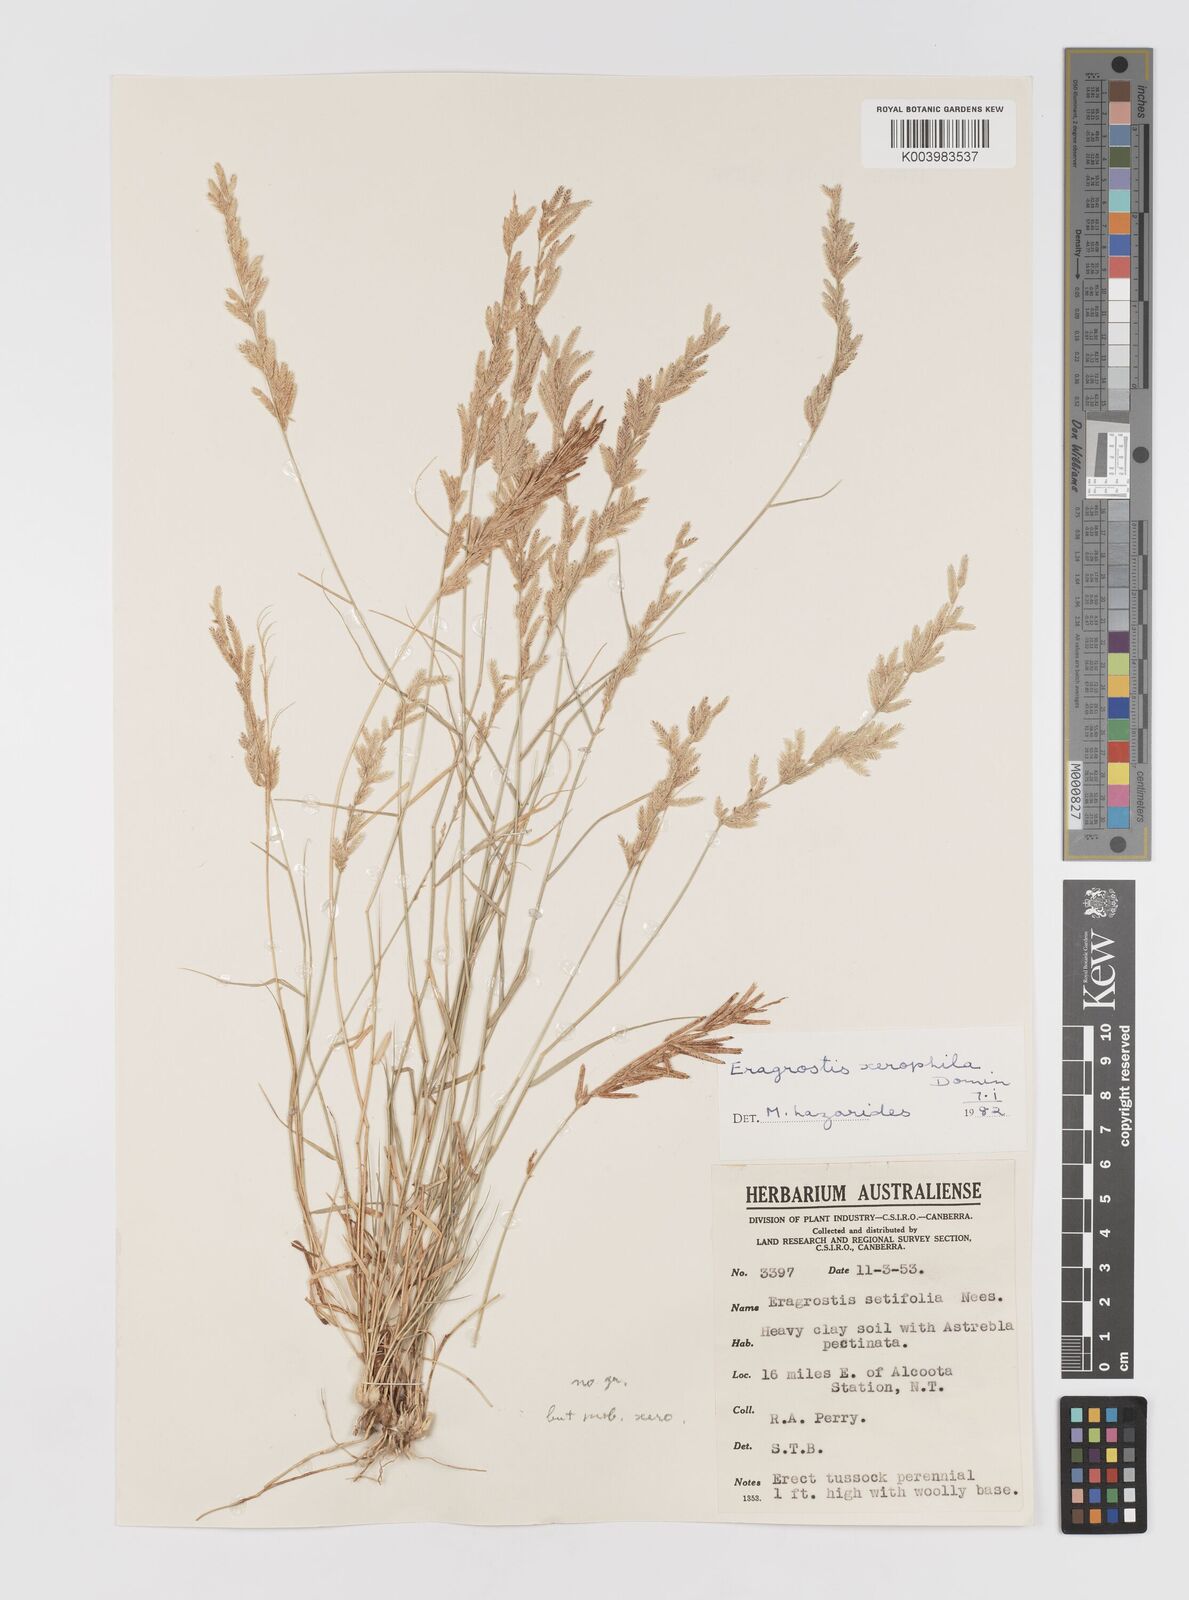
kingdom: Plantae
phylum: Tracheophyta
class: Liliopsida
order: Poales
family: Poaceae
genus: Eragrostis
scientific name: Eragrostis xerophila
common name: Wire wandarrie grass
